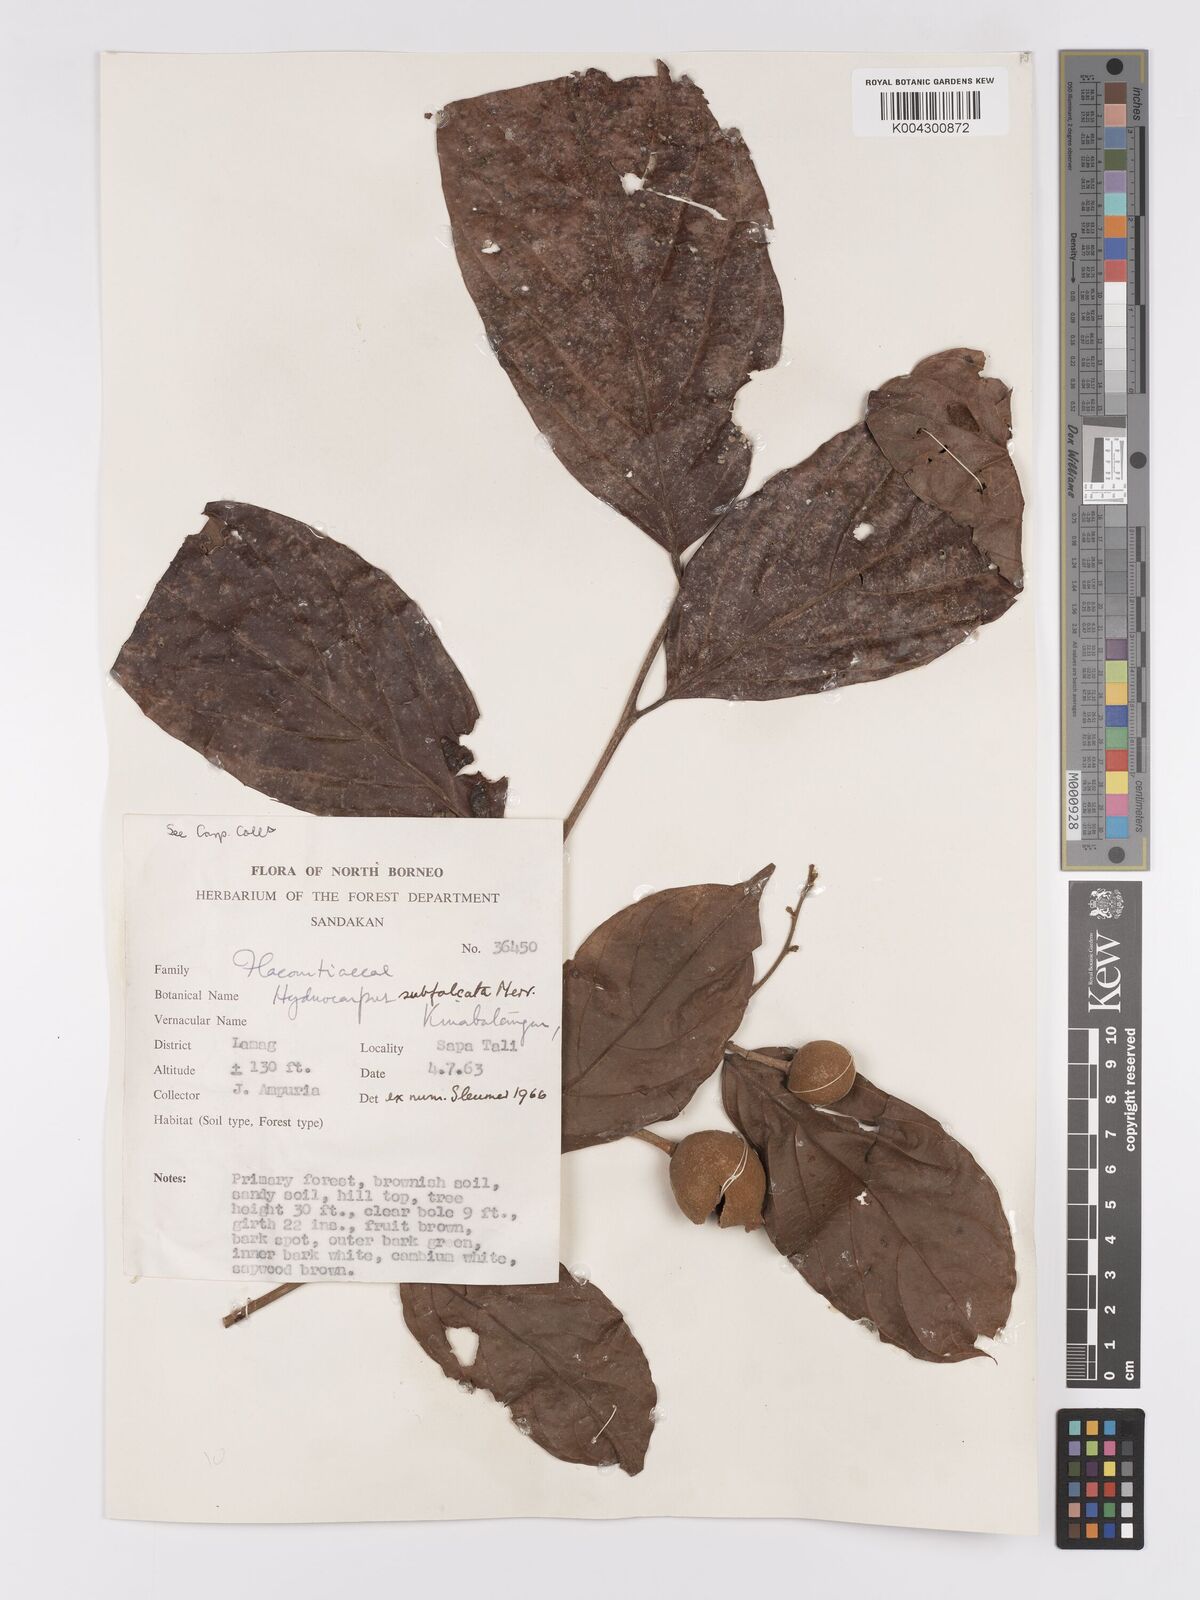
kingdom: Plantae
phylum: Tracheophyta
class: Magnoliopsida
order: Malpighiales
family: Achariaceae
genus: Hydnocarpus
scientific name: Hydnocarpus subfalcatus
